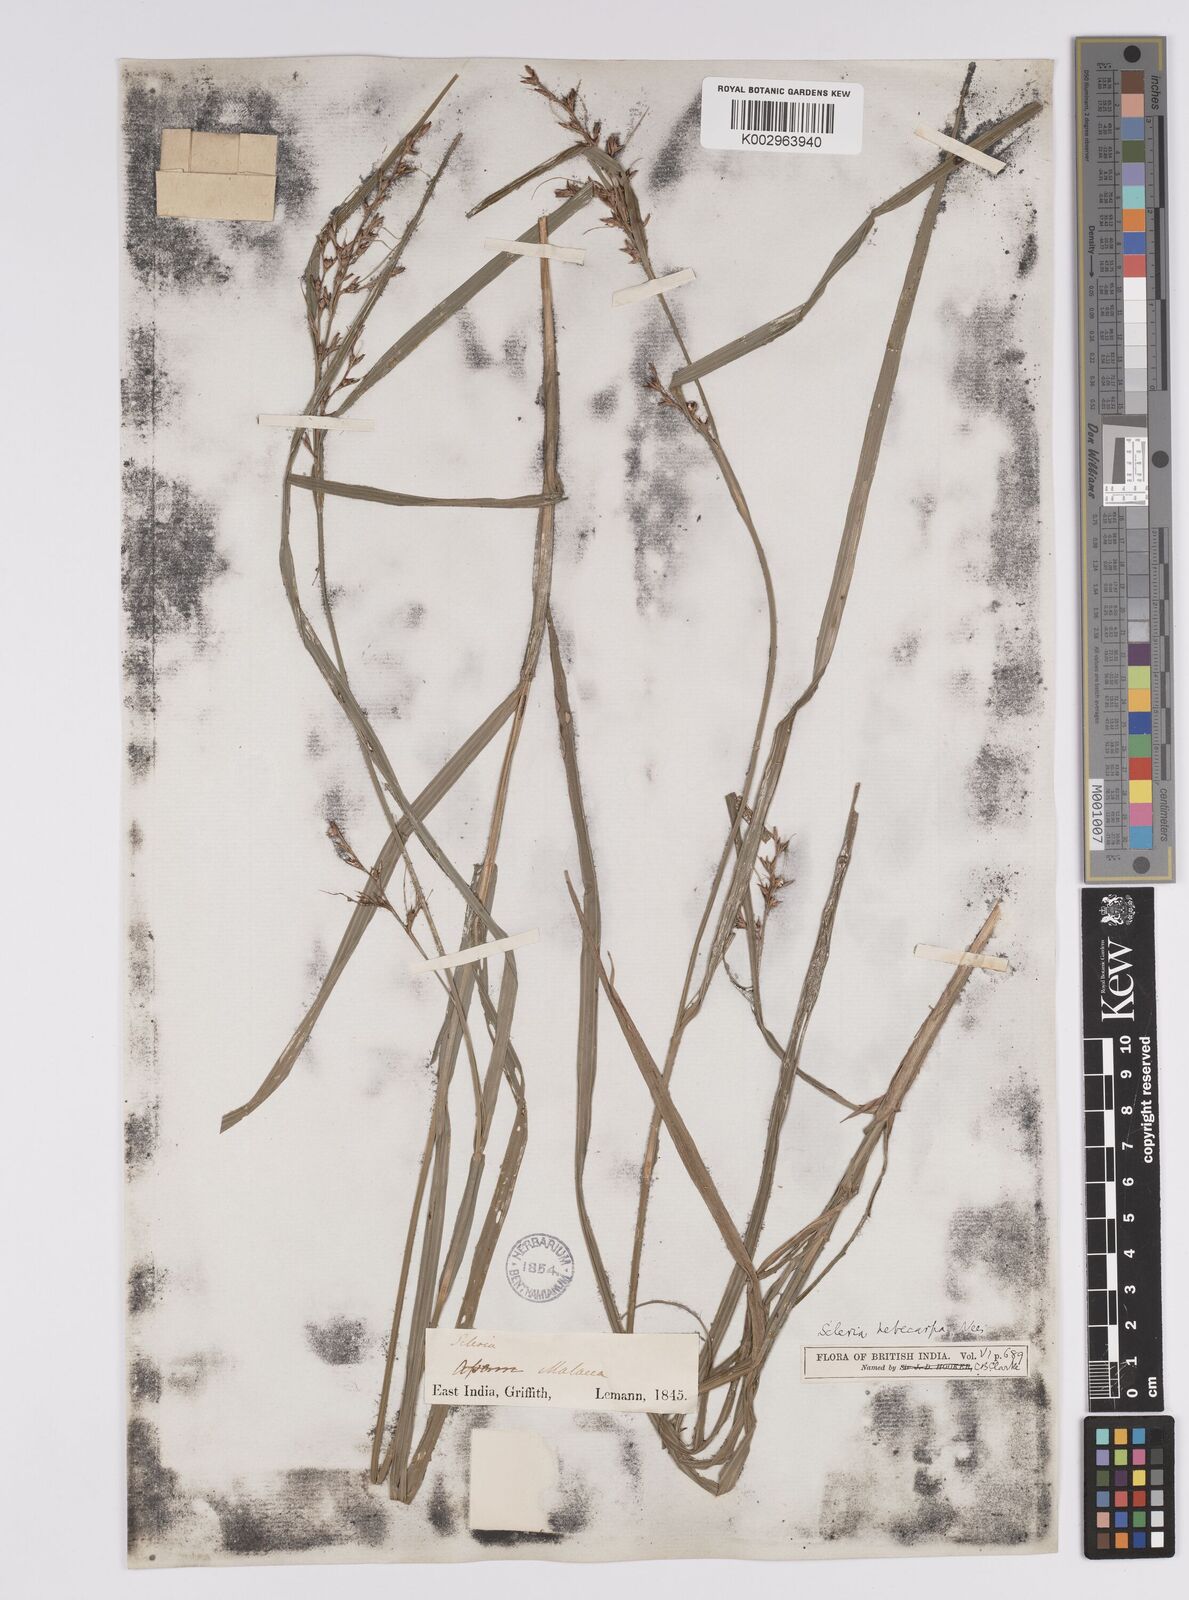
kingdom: Plantae
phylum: Tracheophyta
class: Liliopsida
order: Poales
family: Cyperaceae
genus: Scleria
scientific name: Scleria levis
